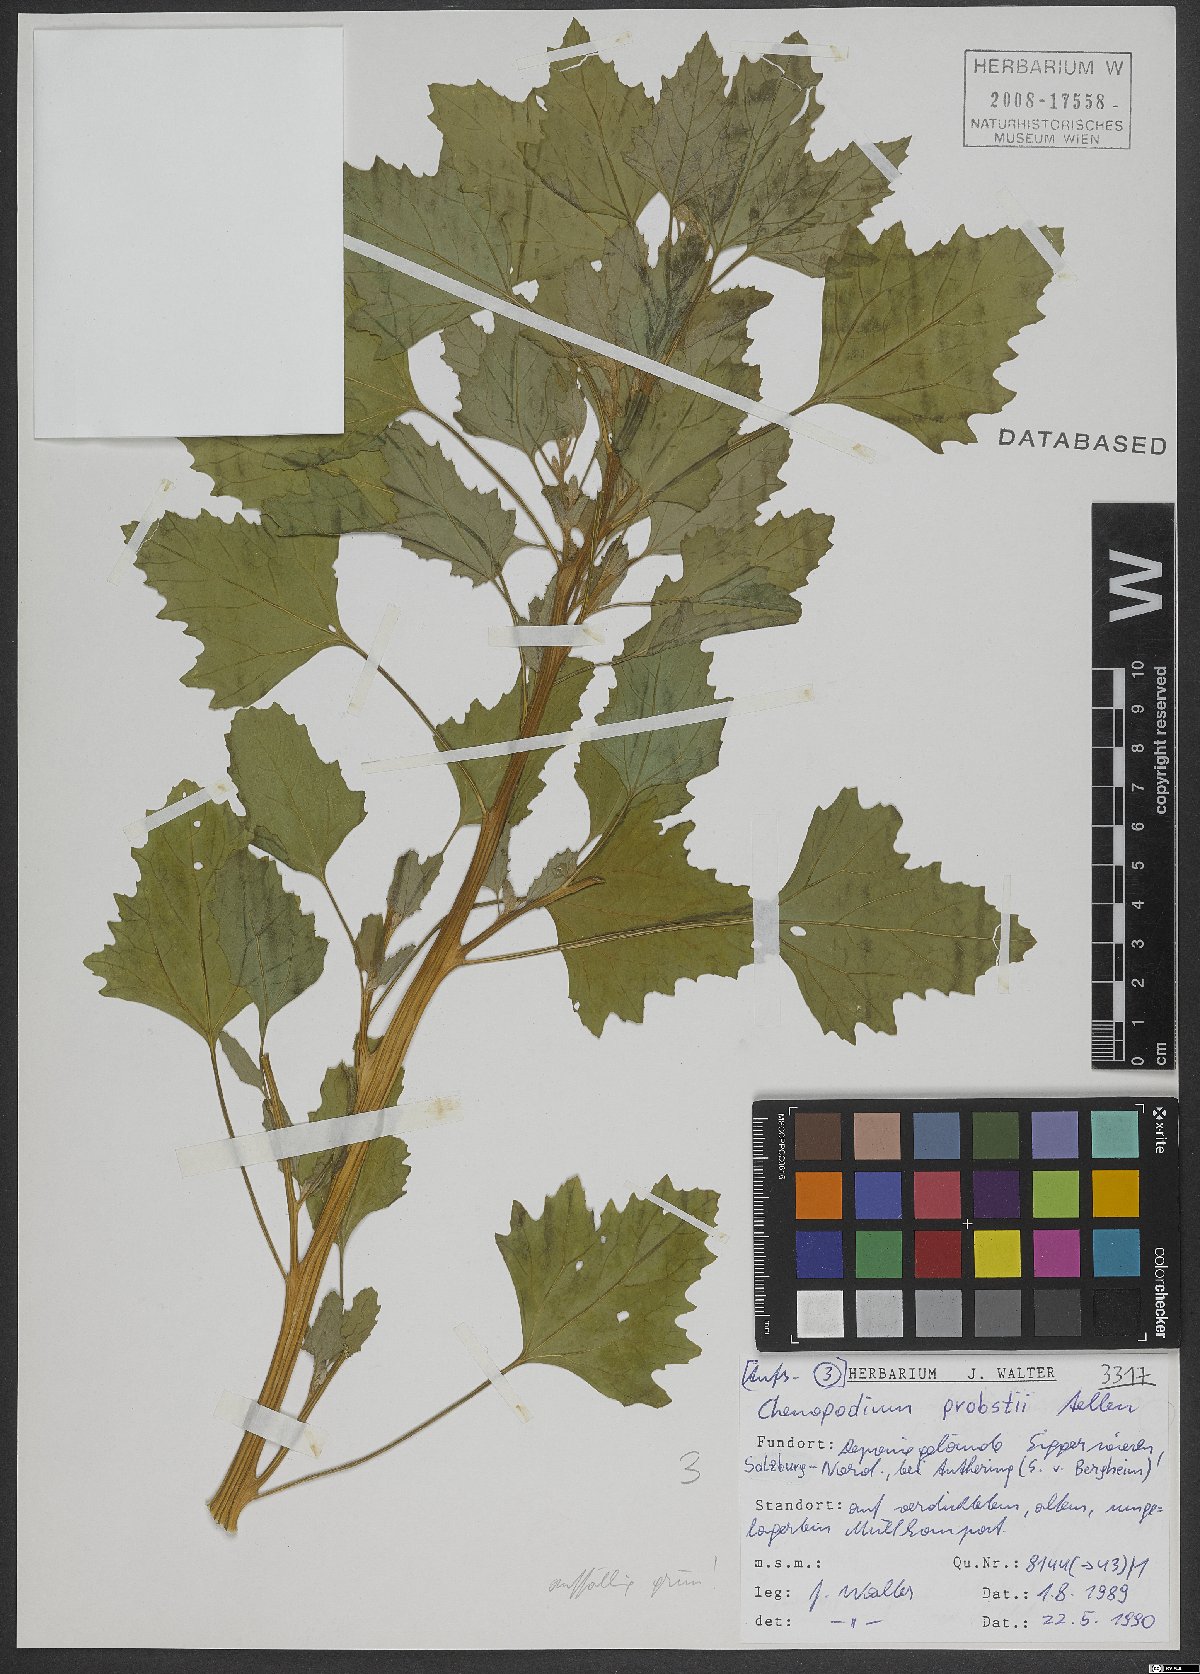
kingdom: Plantae
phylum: Tracheophyta
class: Magnoliopsida
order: Caryophyllales
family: Amaranthaceae
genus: Chenopodium
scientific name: Chenopodium probstii
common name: Probst's goosefoot
